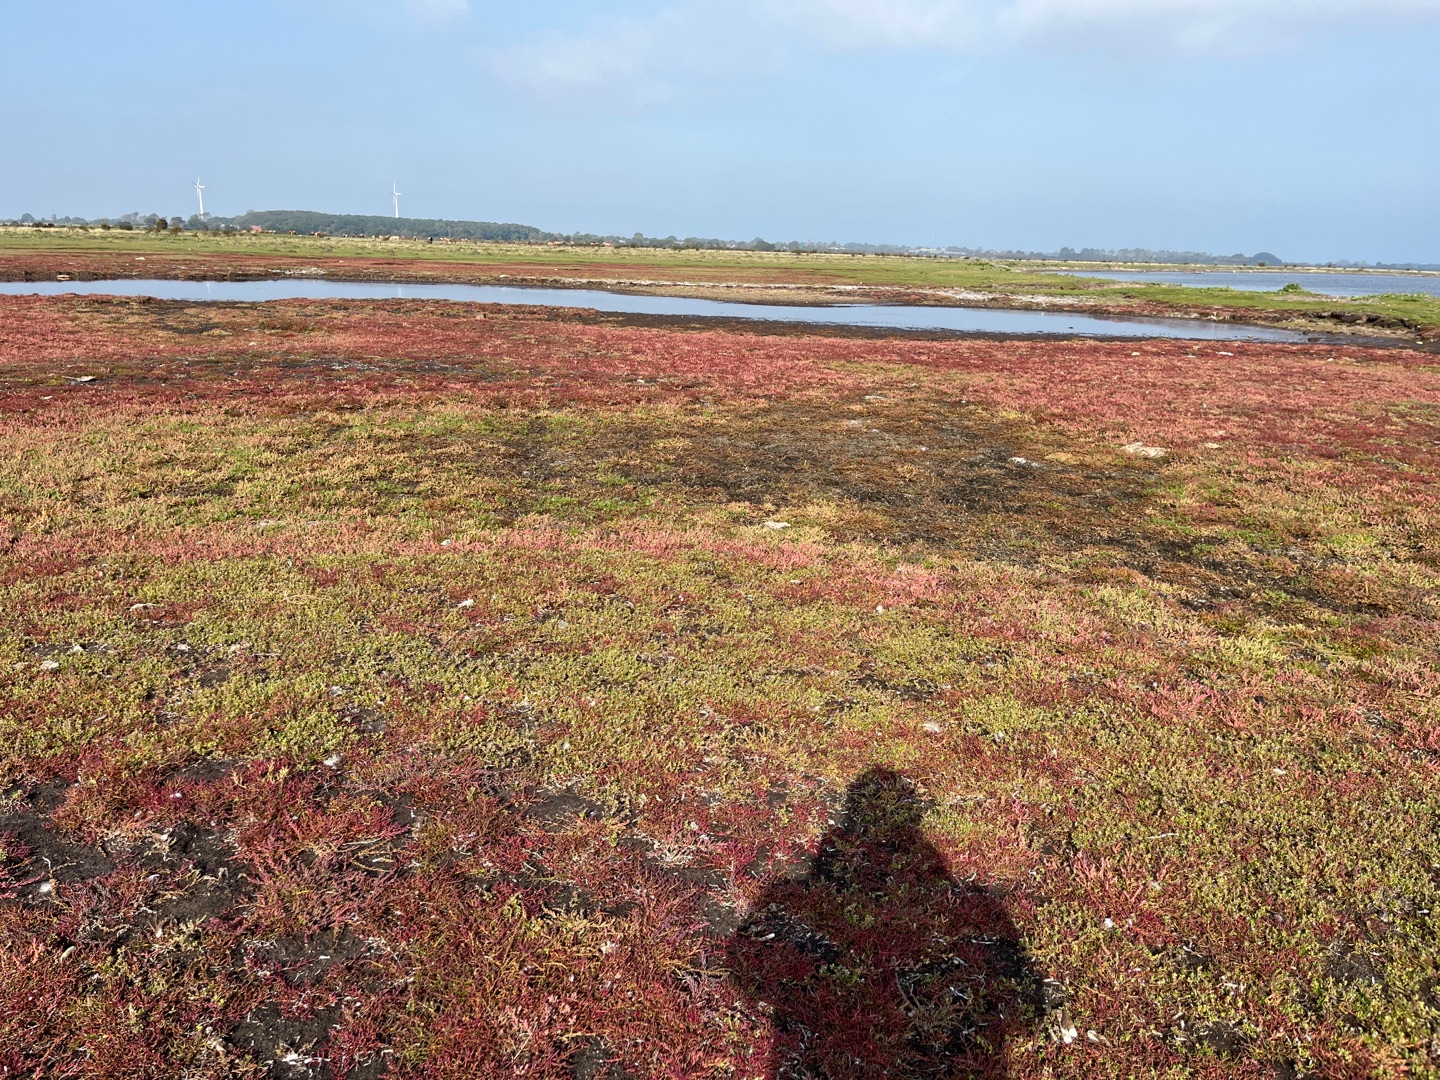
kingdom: Plantae
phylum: Tracheophyta
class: Magnoliopsida
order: Caryophyllales
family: Amaranthaceae
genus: Spirobassia
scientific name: Spirobassia hirsuta
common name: Tangurt
